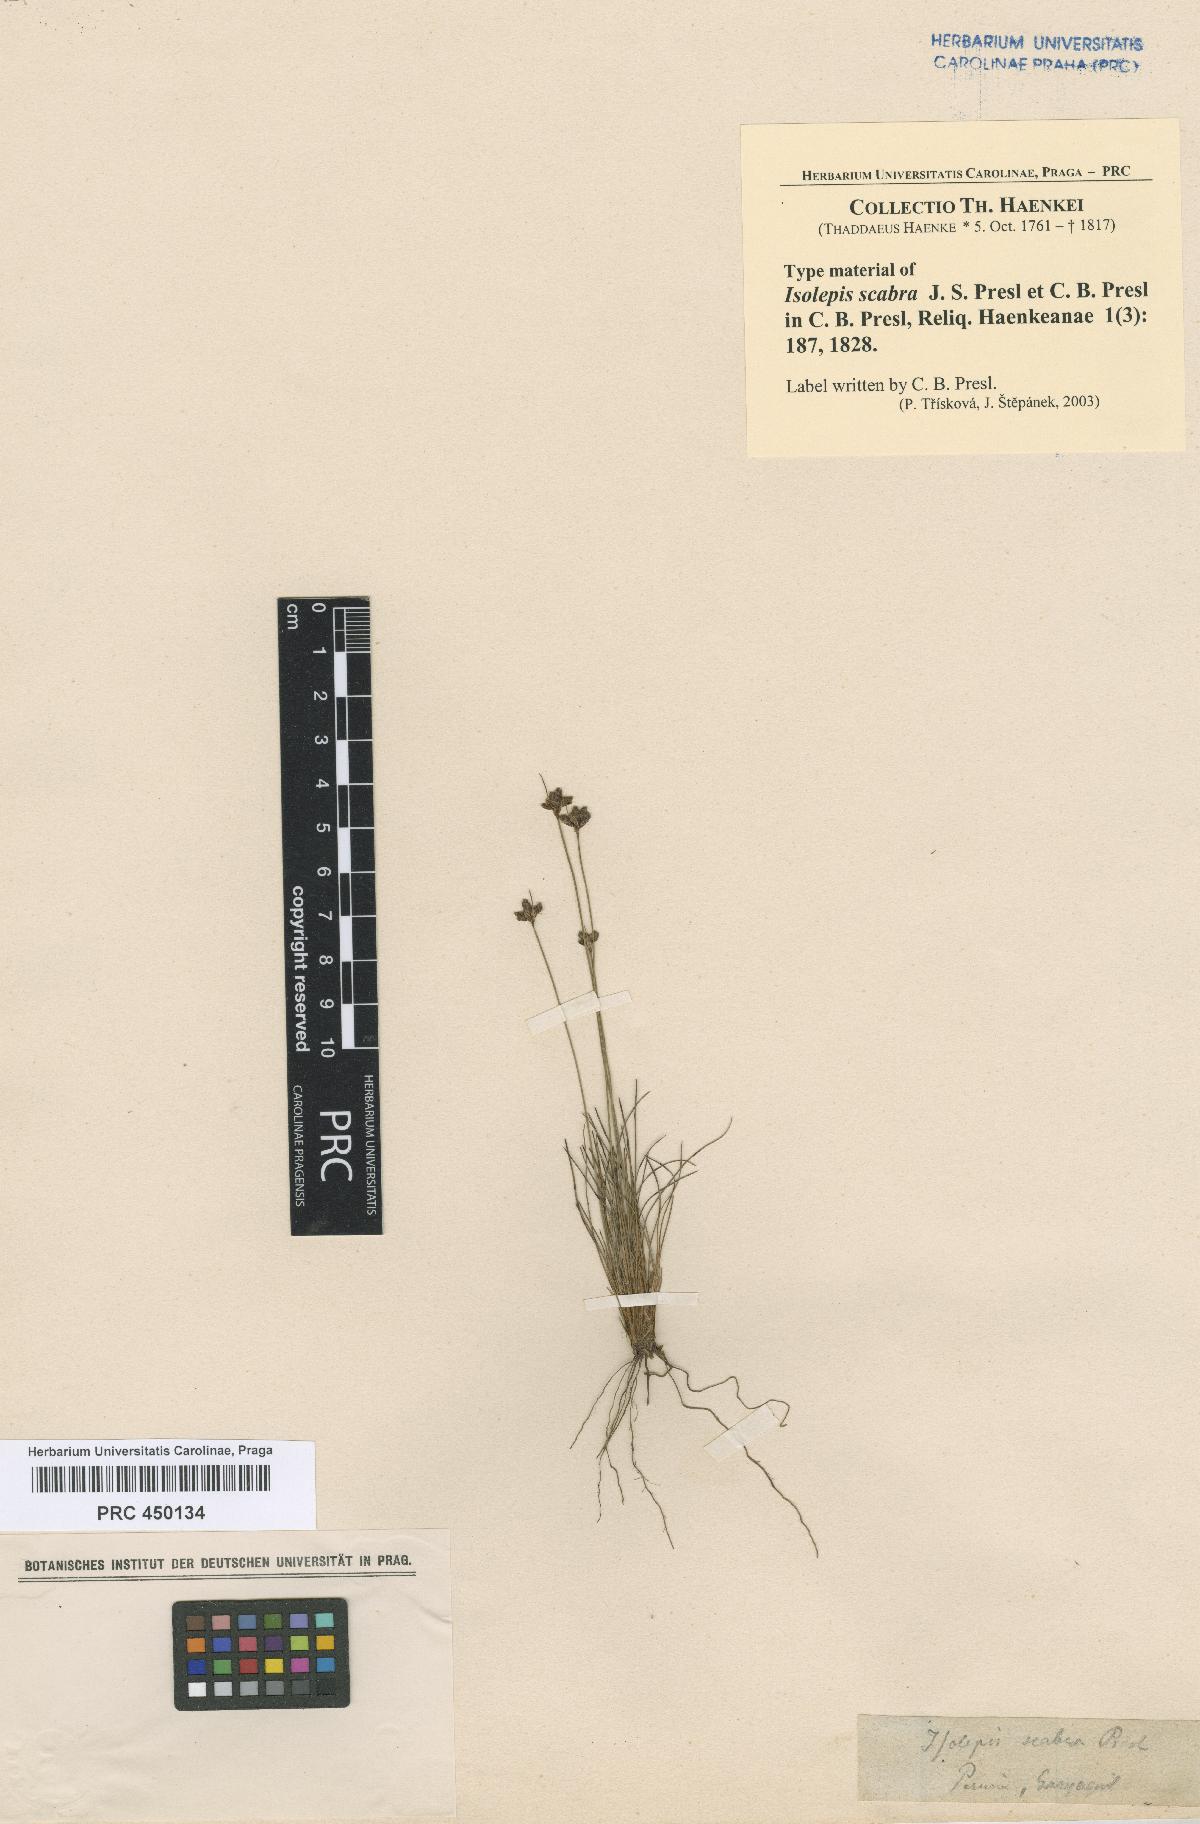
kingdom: Plantae
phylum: Tracheophyta
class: Liliopsida
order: Poales
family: Cyperaceae
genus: Bulbostylis
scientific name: Bulbostylis scabra
